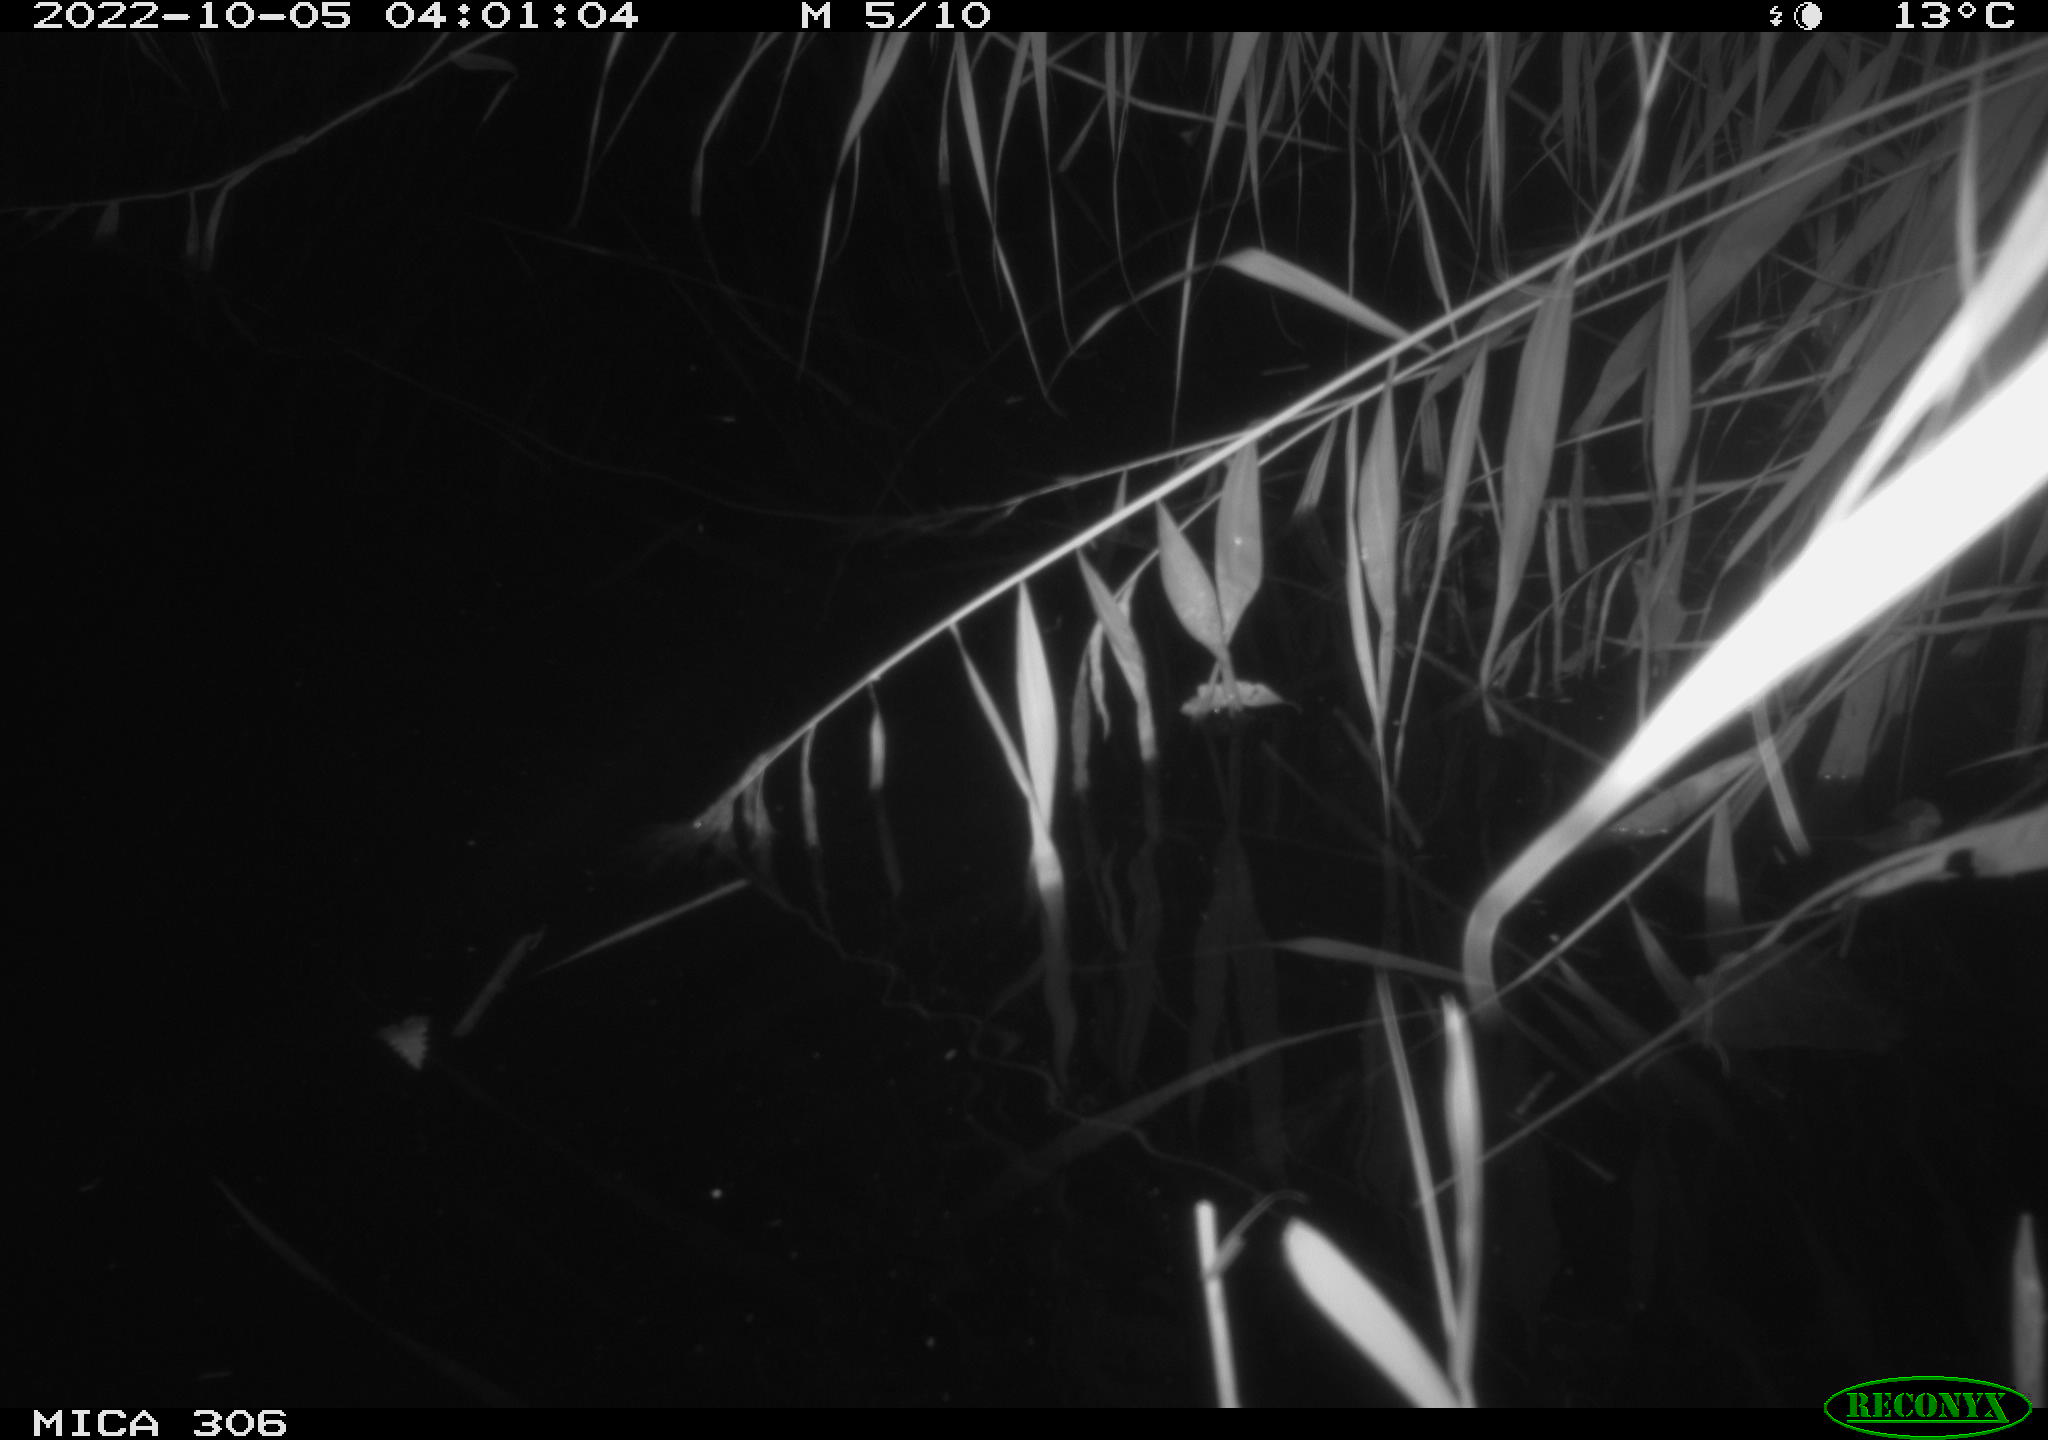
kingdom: Animalia
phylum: Chordata
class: Mammalia
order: Rodentia
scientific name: Rodentia
